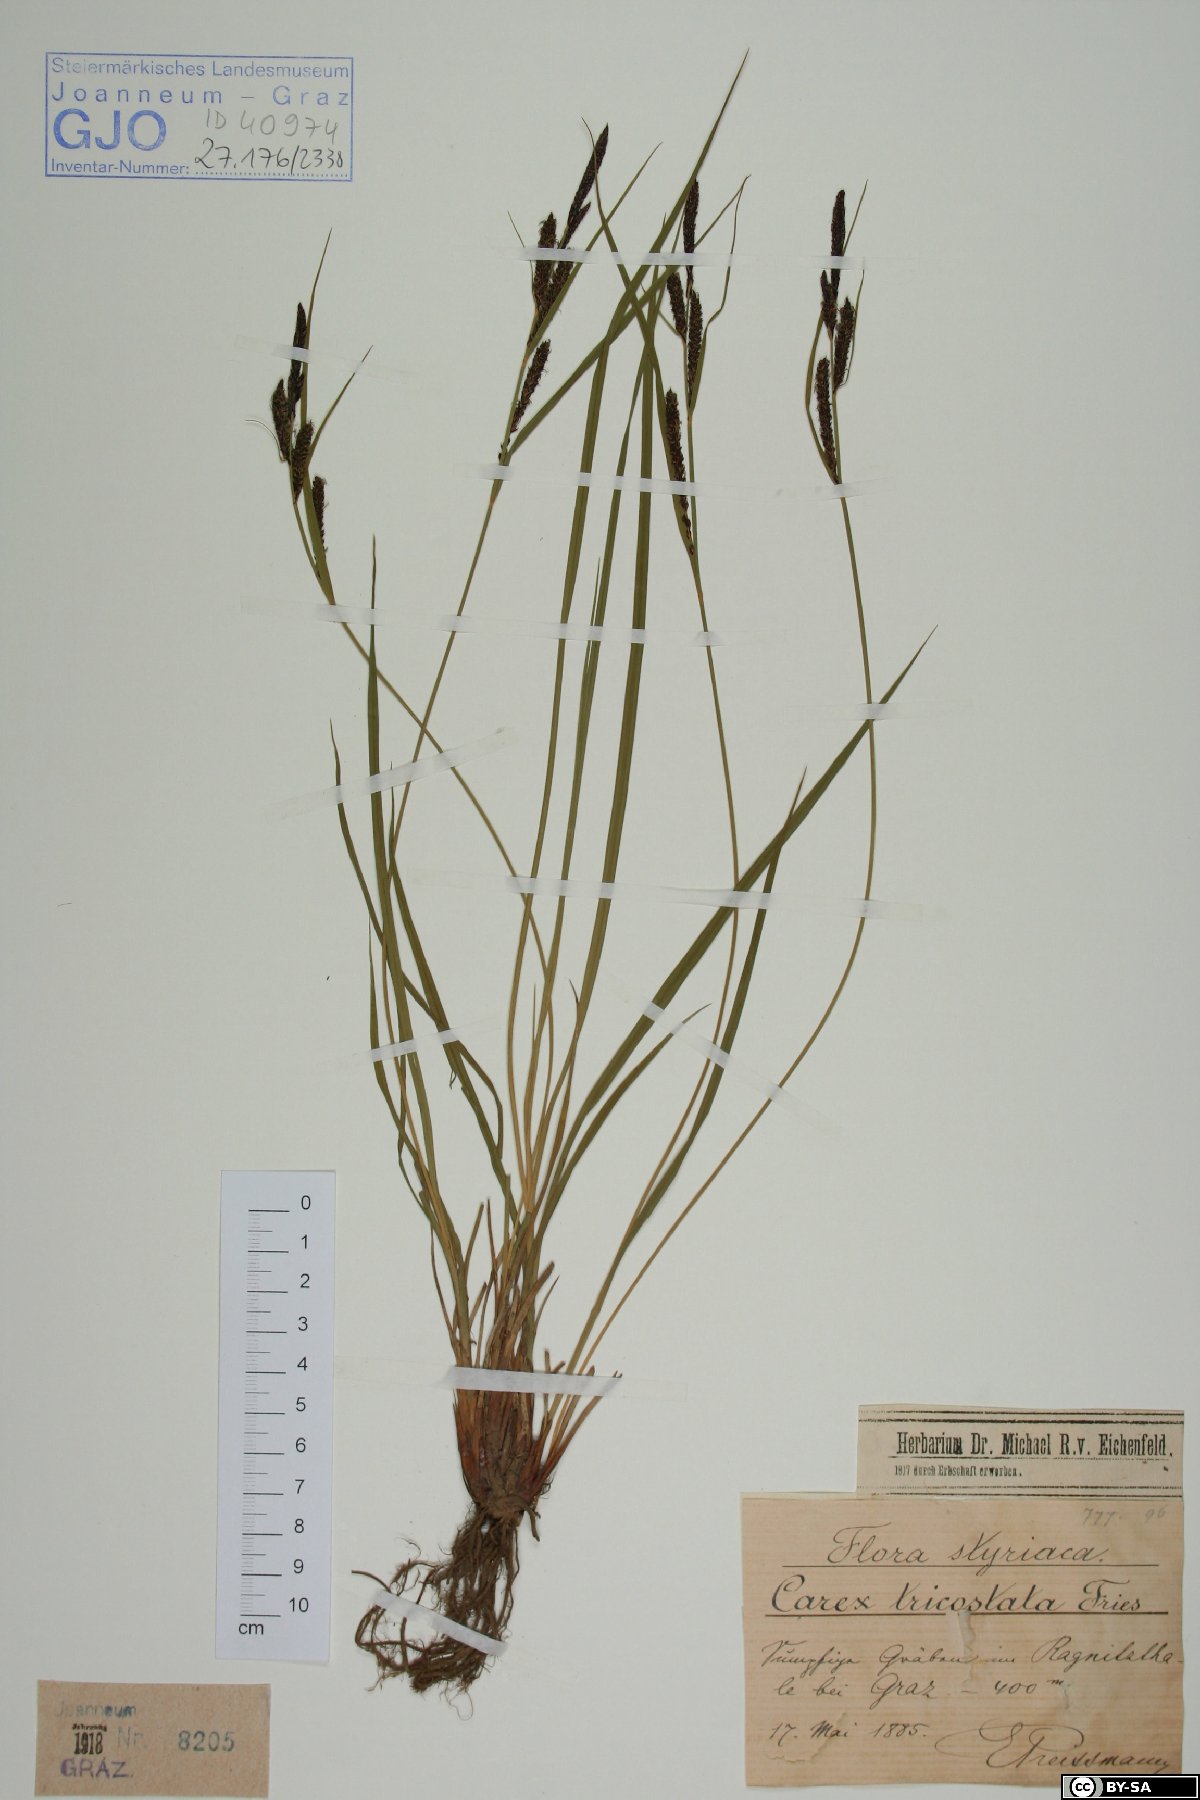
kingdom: Plantae
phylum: Tracheophyta
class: Liliopsida
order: Poales
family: Cyperaceae
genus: Carex
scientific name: Carex acuta
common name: Slender tufted-sedge
